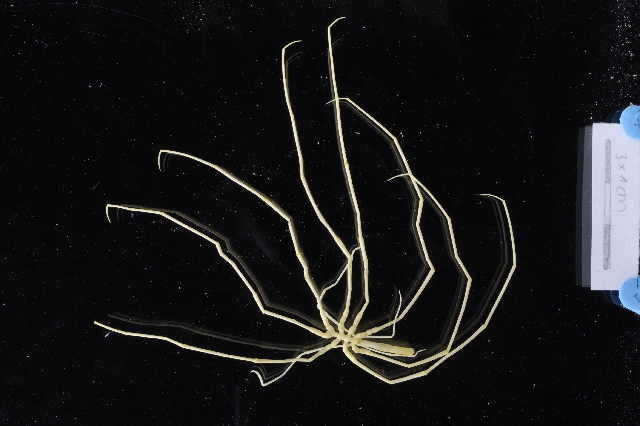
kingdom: Animalia
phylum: Arthropoda
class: Pycnogonida
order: Pantopoda
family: Colossendeidae
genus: Colossendeis
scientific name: Colossendeis megalonyx
